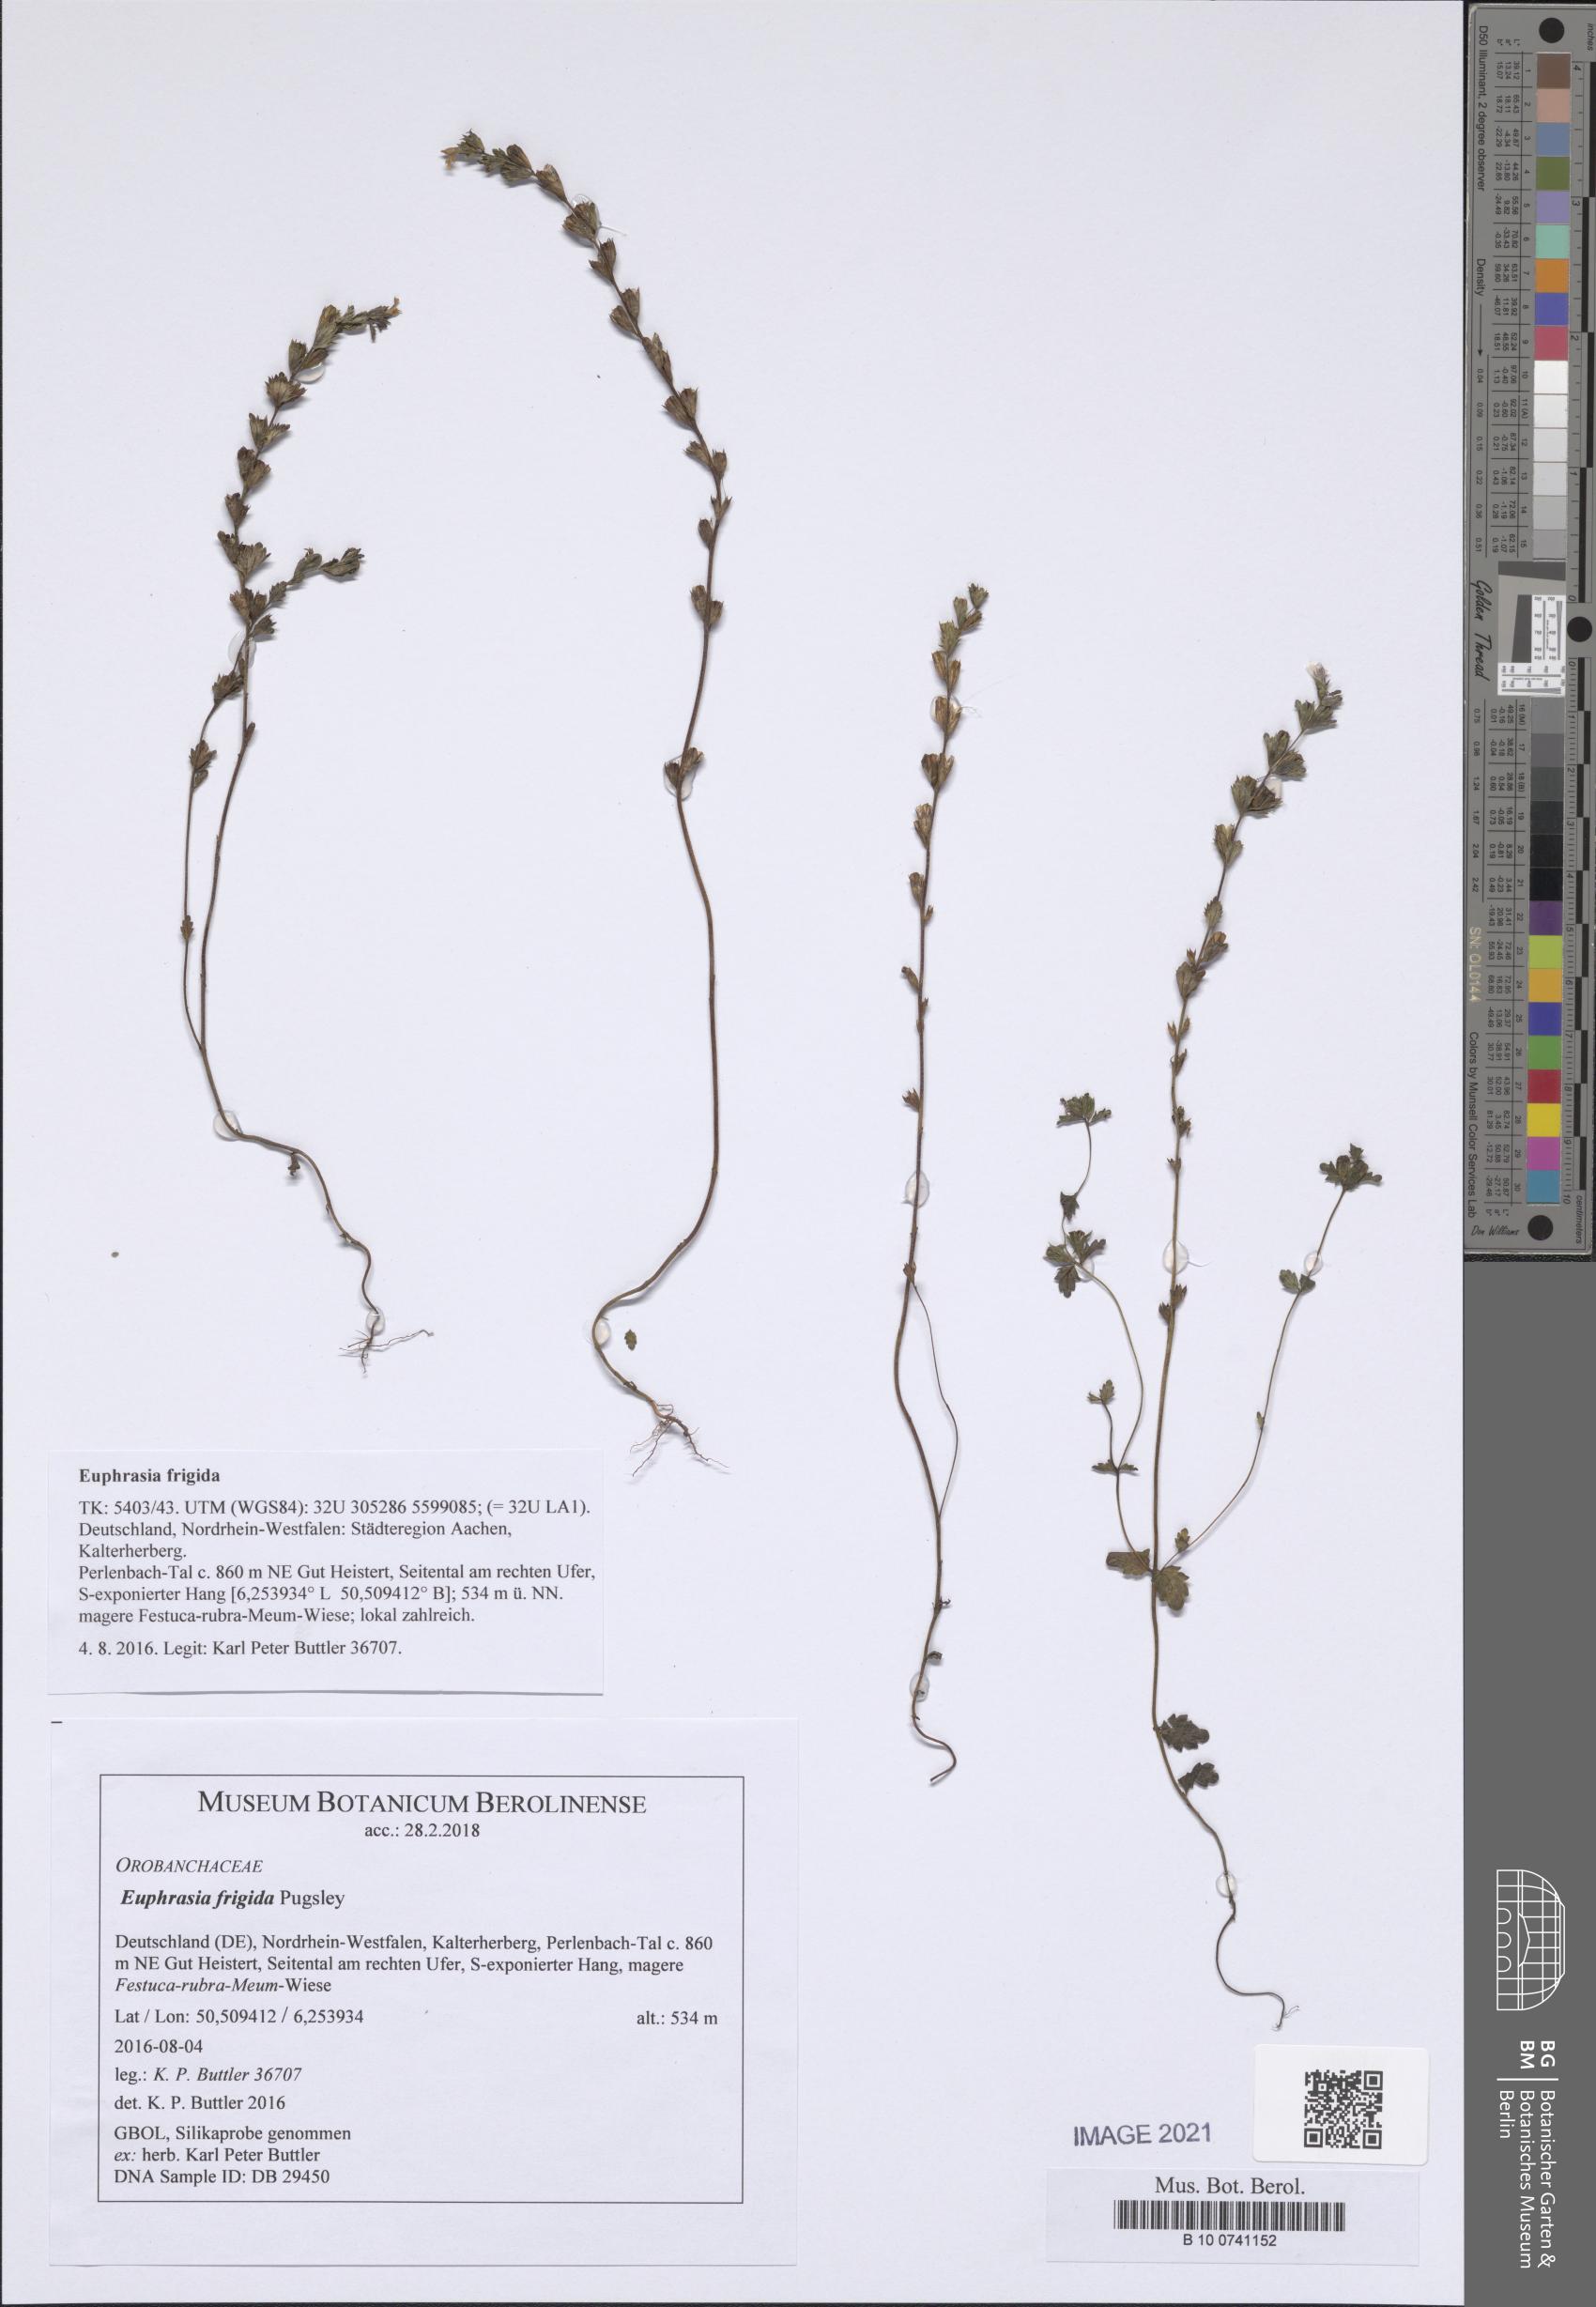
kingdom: Plantae
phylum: Tracheophyta
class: Magnoliopsida
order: Lamiales
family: Orobanchaceae
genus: Euphrasia
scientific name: Euphrasia frigida
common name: An eyebright
